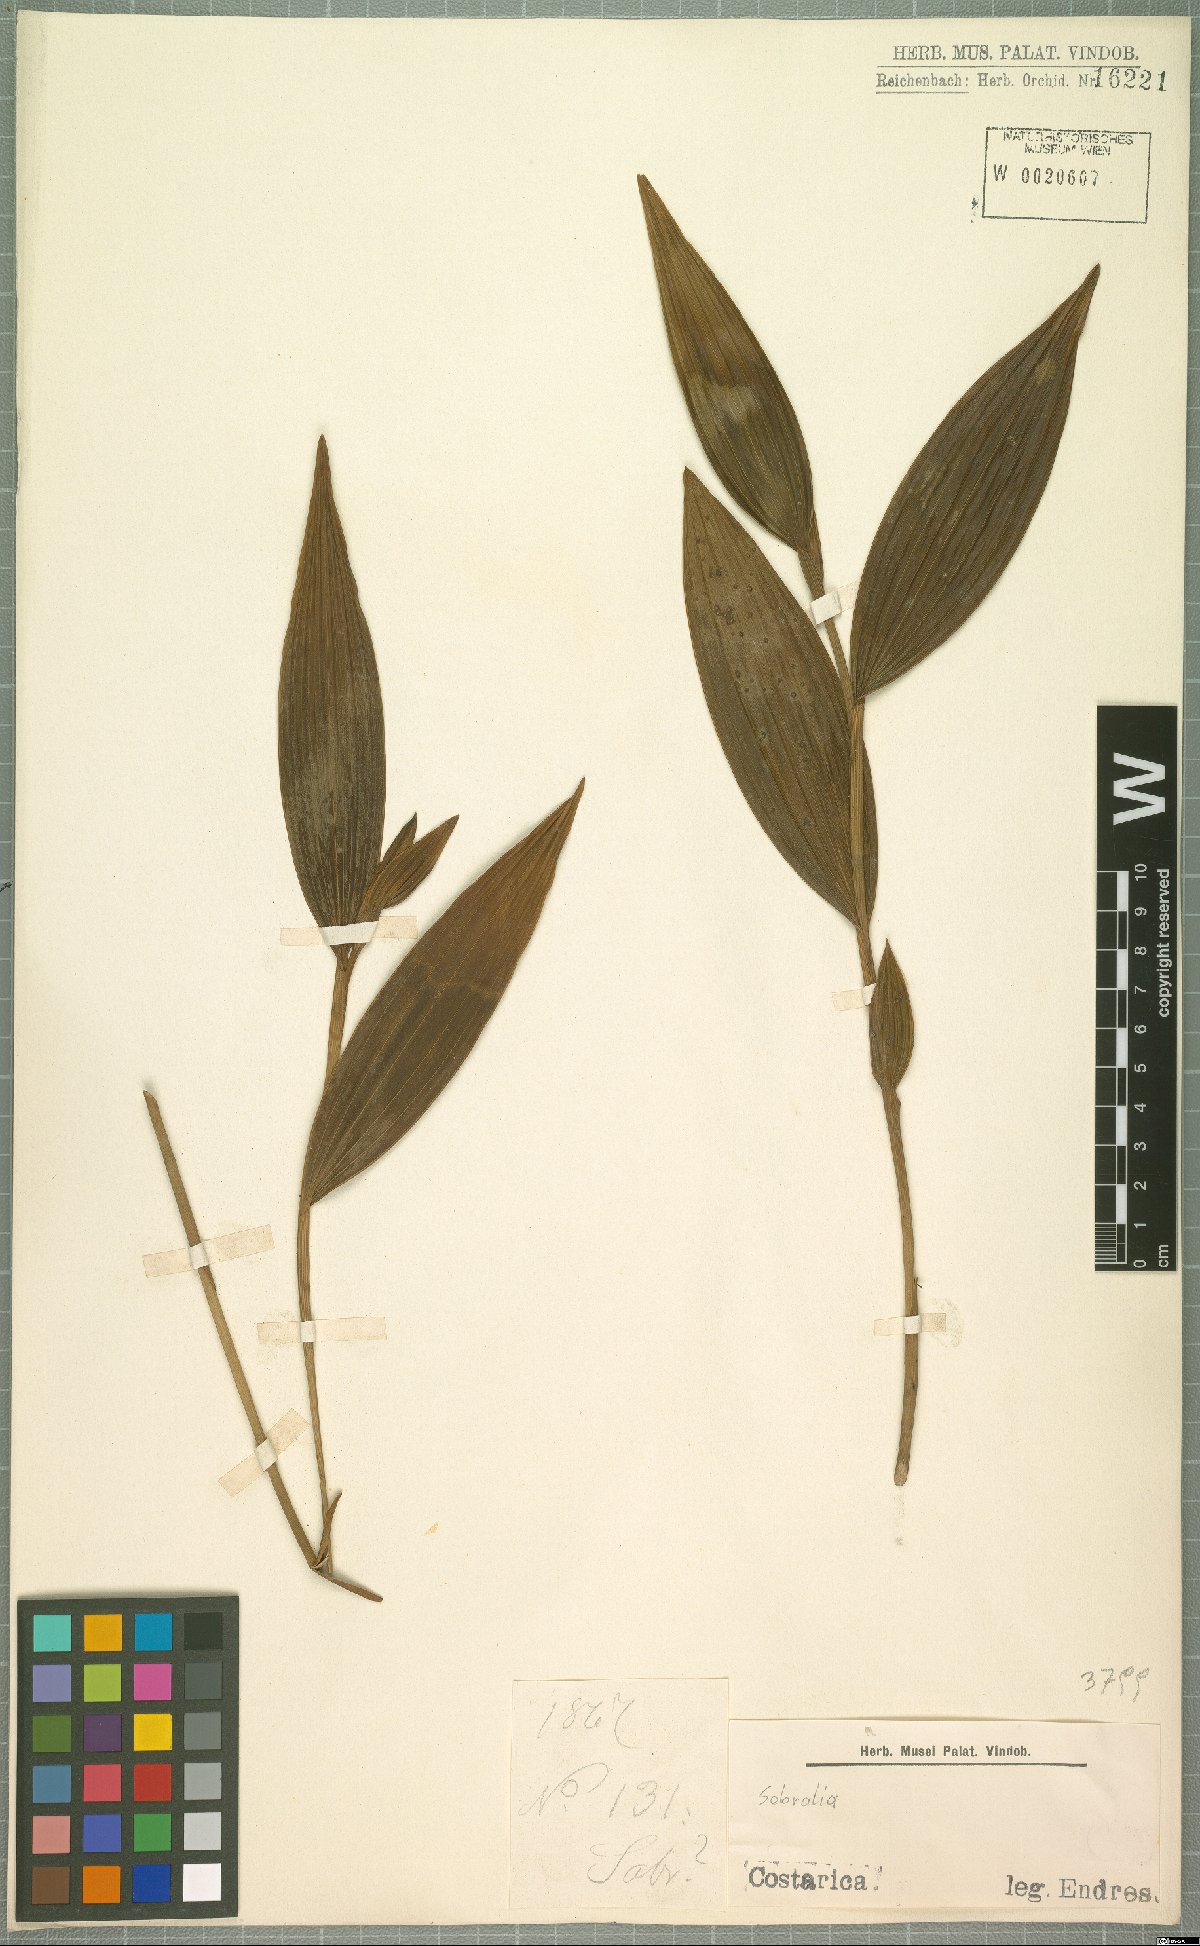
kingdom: Plantae
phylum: Tracheophyta
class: Liliopsida
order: Asparagales
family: Orchidaceae
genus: Sobralia
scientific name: Sobralia
